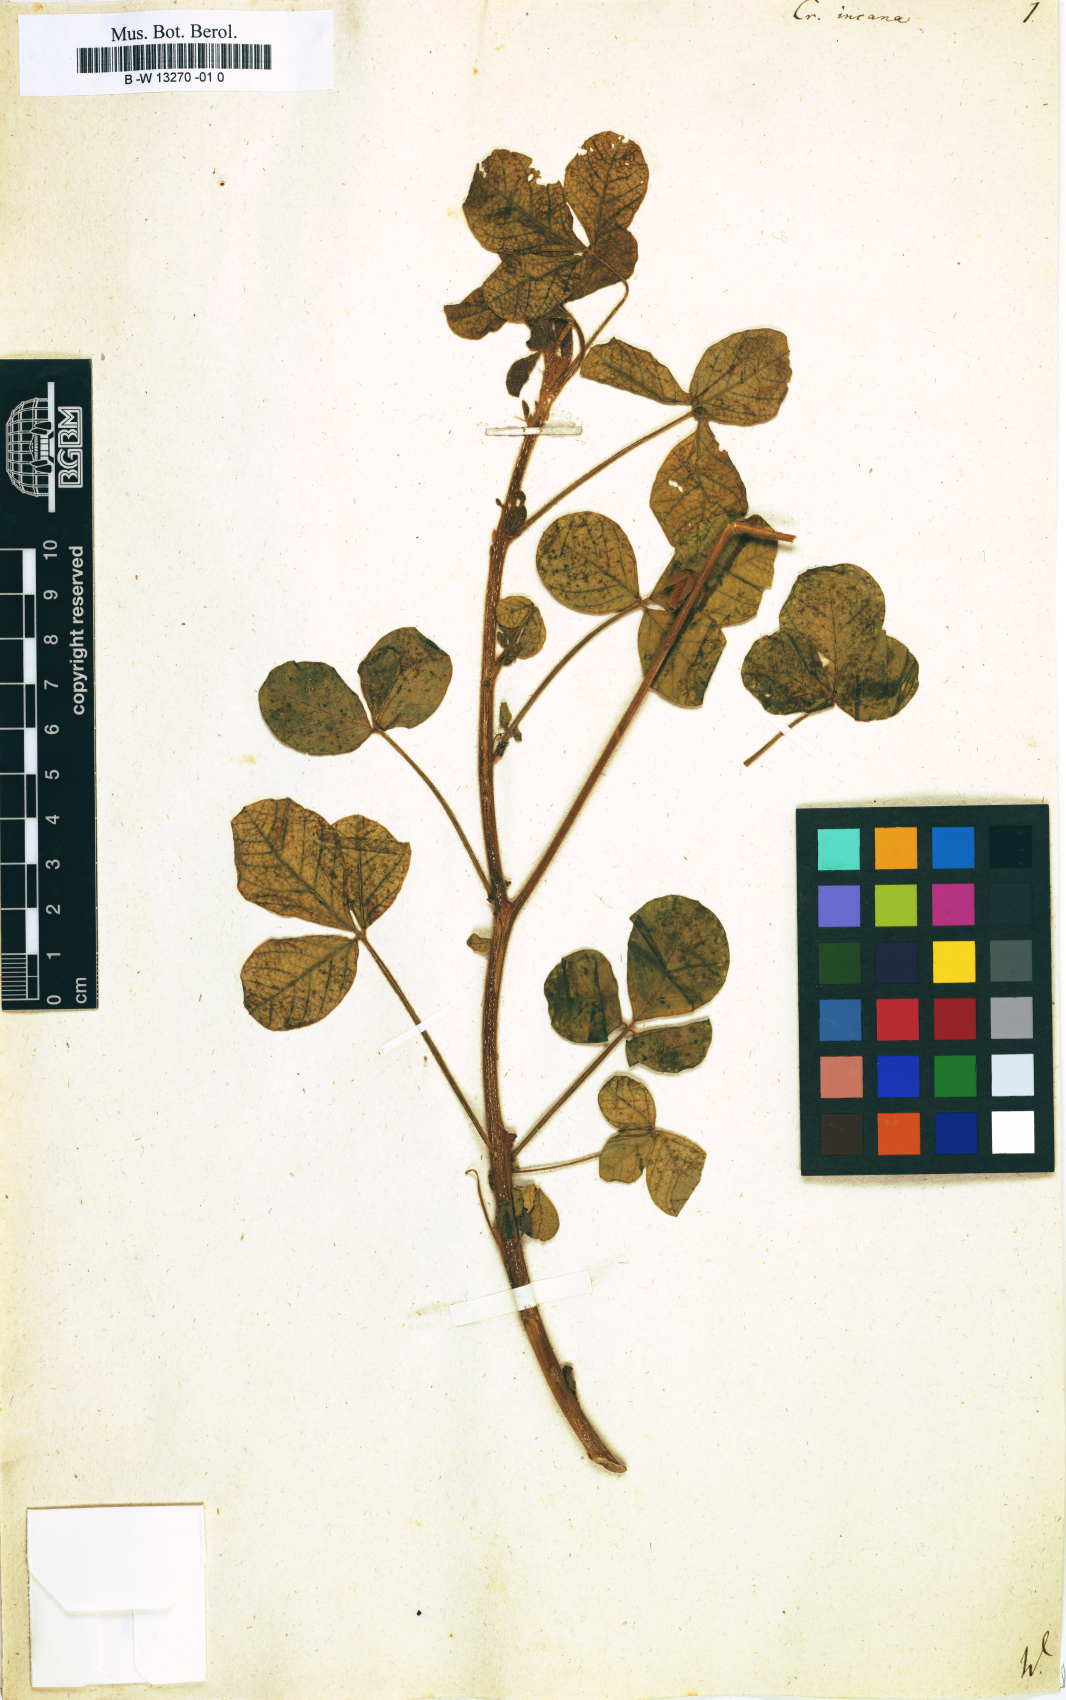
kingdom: Plantae
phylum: Tracheophyta
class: Magnoliopsida
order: Fabales
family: Fabaceae
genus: Crotalaria
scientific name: Crotalaria incana
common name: Shakeshake
